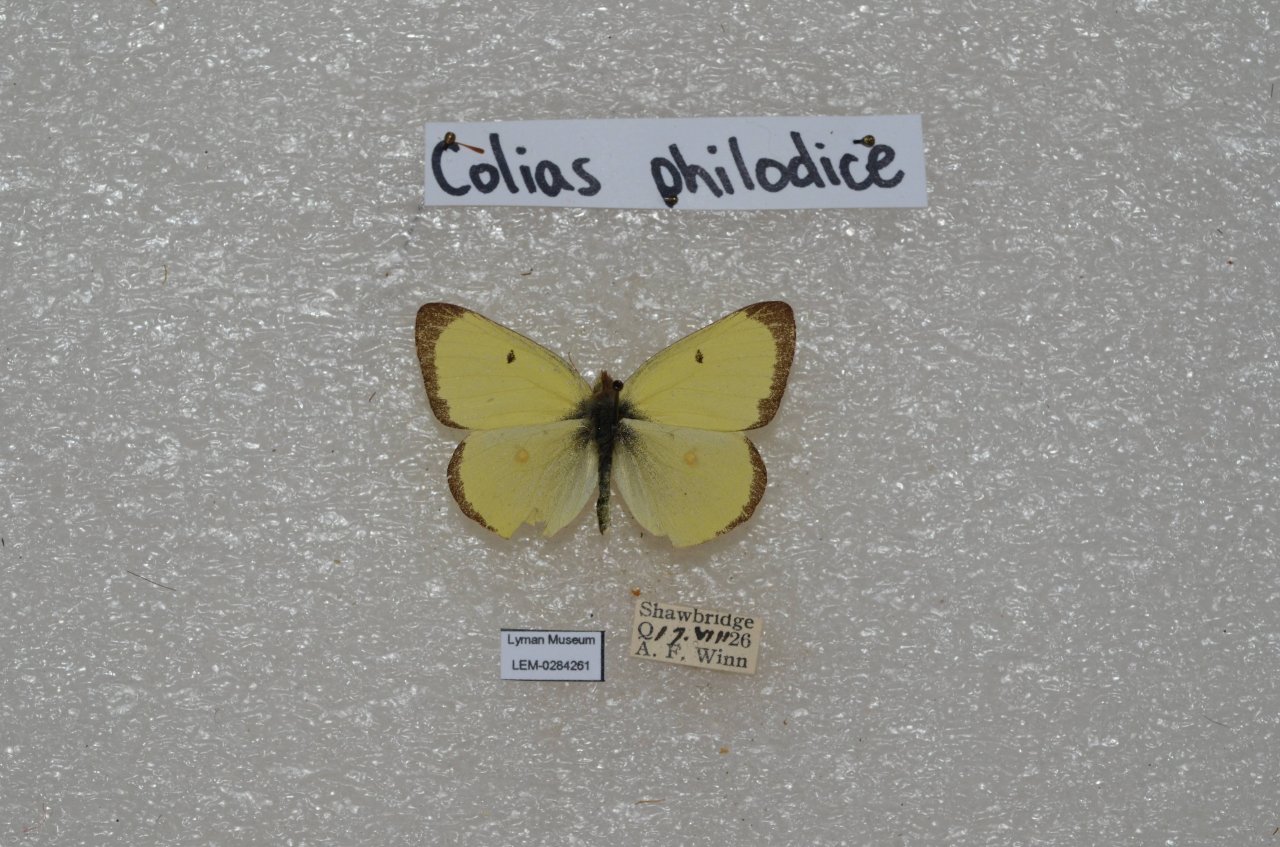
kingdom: Animalia
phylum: Arthropoda
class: Insecta
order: Lepidoptera
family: Pieridae
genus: Colias
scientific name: Colias philodice
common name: Clouded Sulphur
